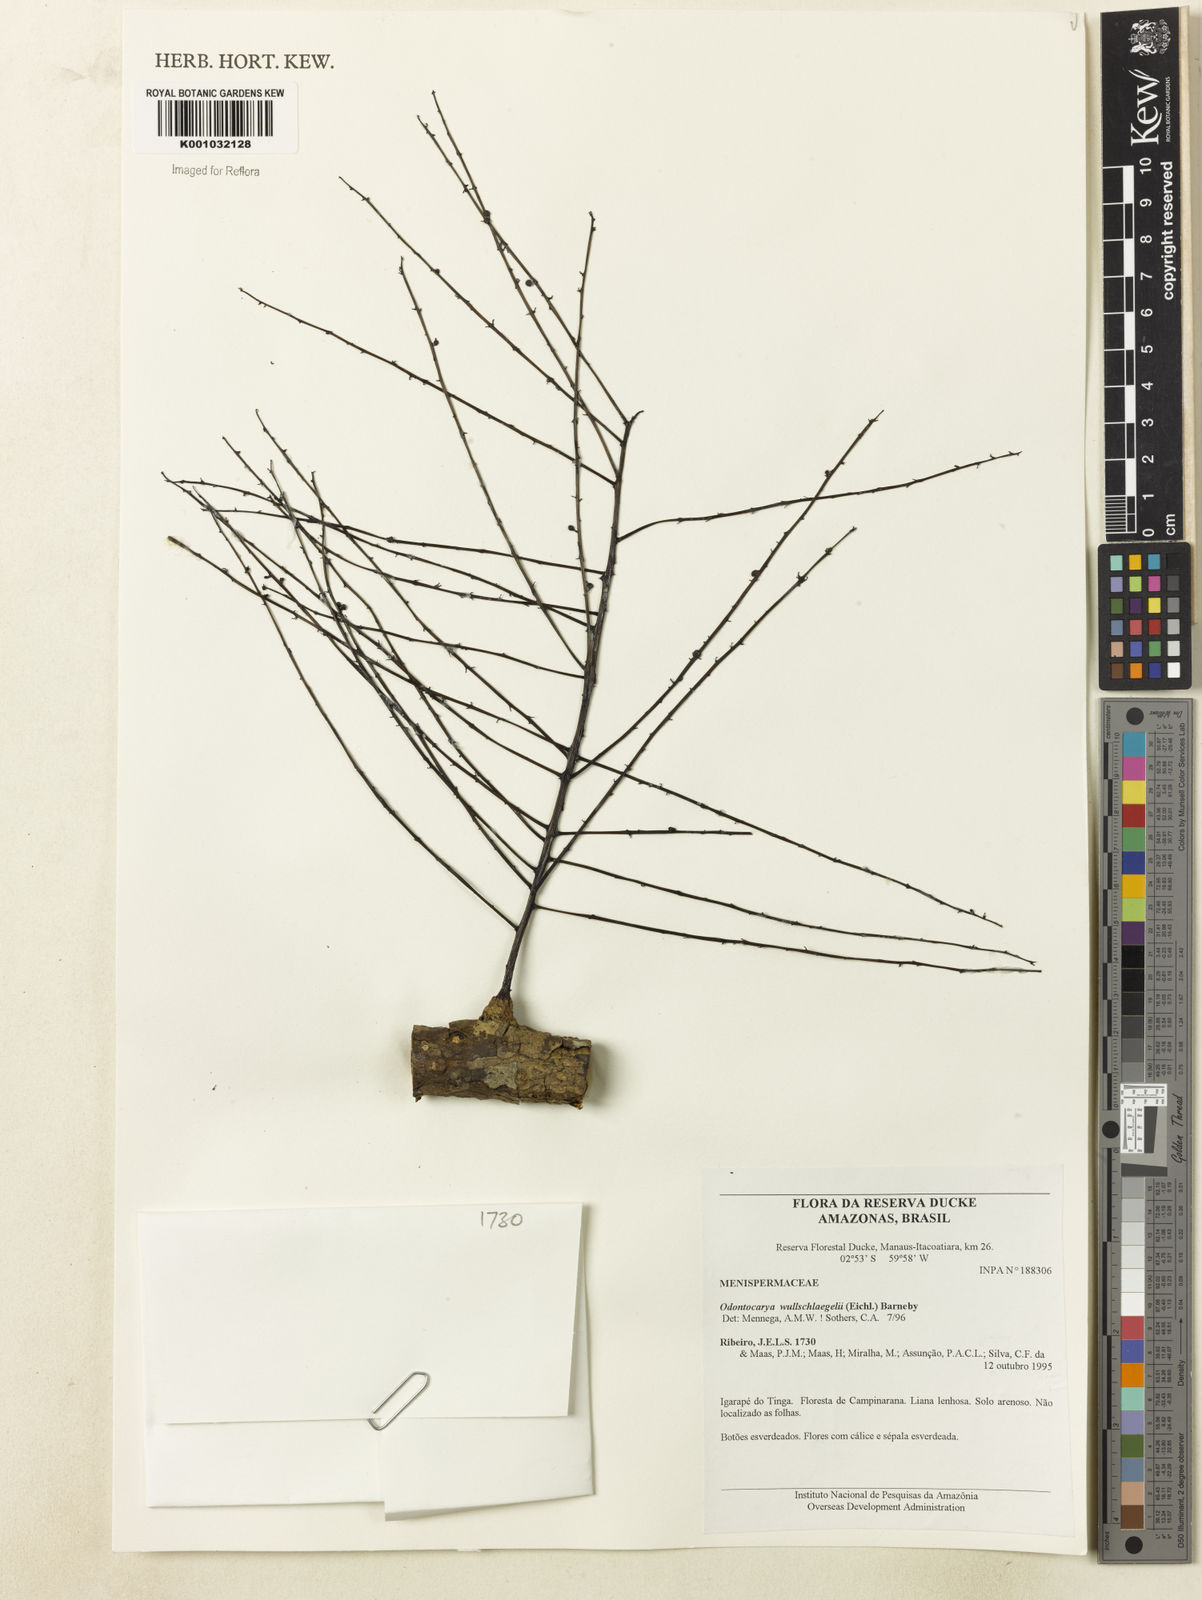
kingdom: Plantae
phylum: Tracheophyta
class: Magnoliopsida
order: Ranunculales
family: Menispermaceae
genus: Odontocarya
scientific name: Odontocarya wullschlaegelii
